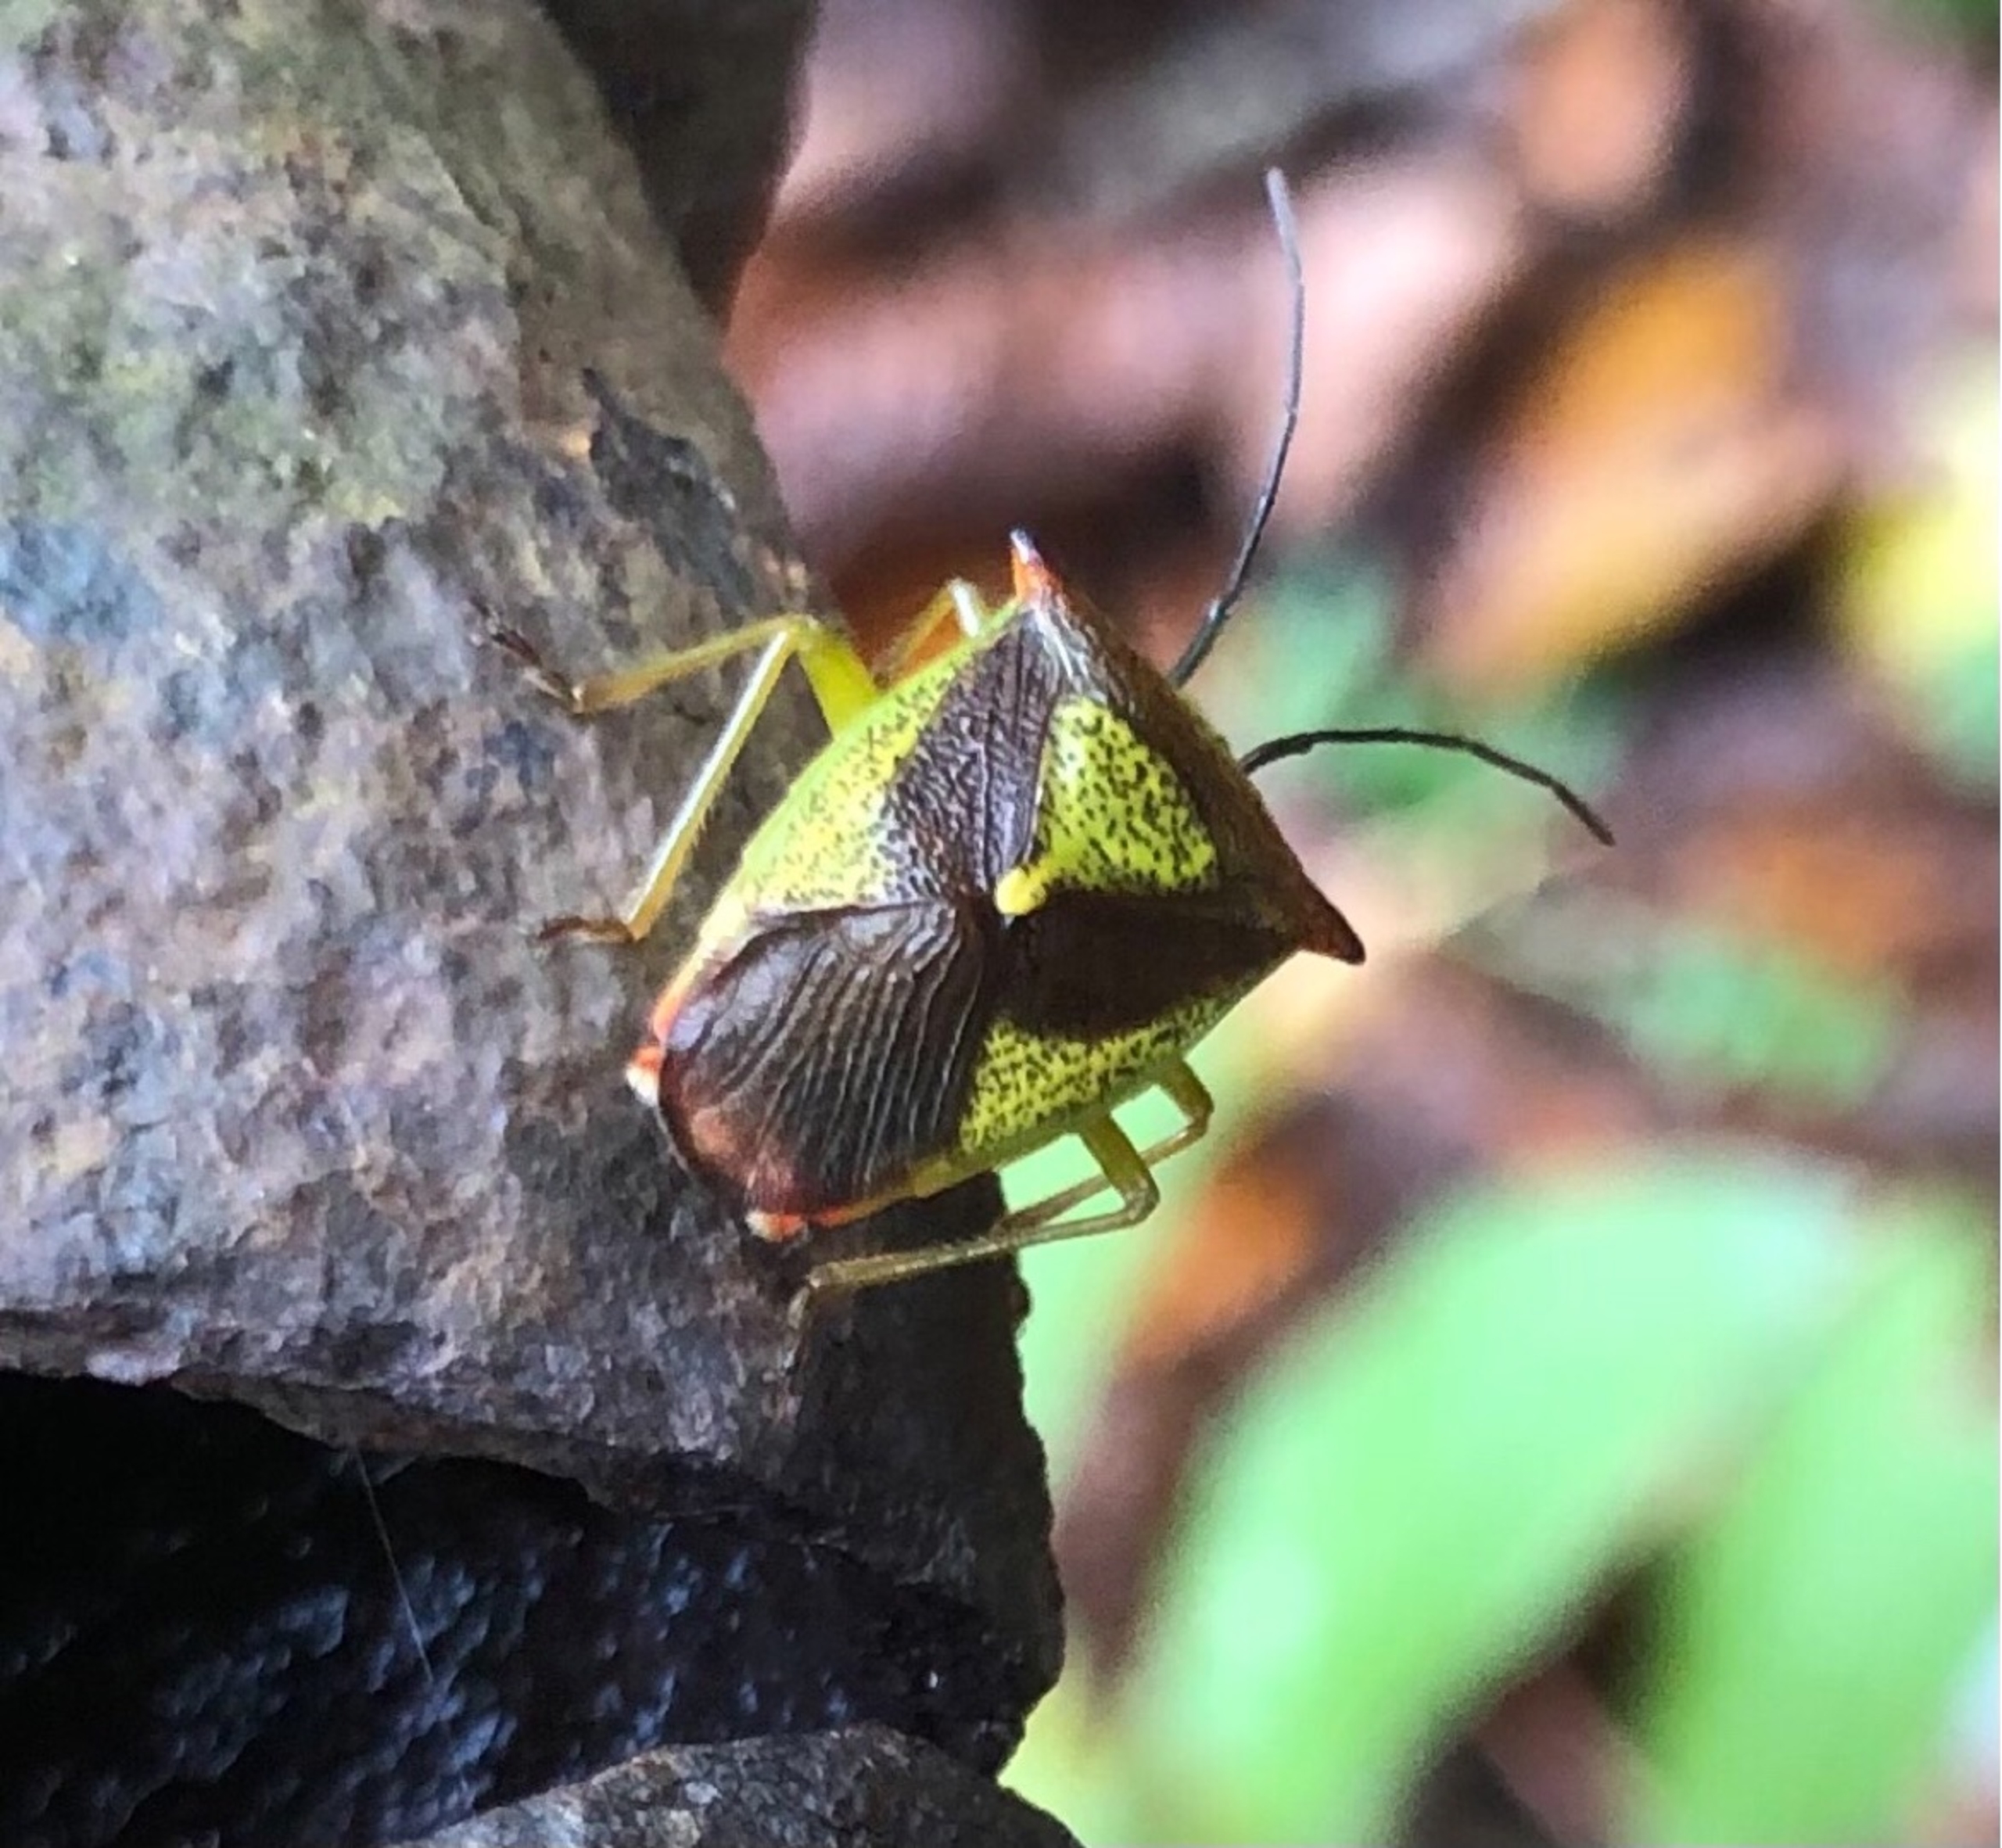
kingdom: Animalia
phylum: Arthropoda
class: Insecta
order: Hemiptera
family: Acanthosomatidae
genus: Acanthosoma
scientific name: Acanthosoma haemorrhoidale
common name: Stor løvtæge
